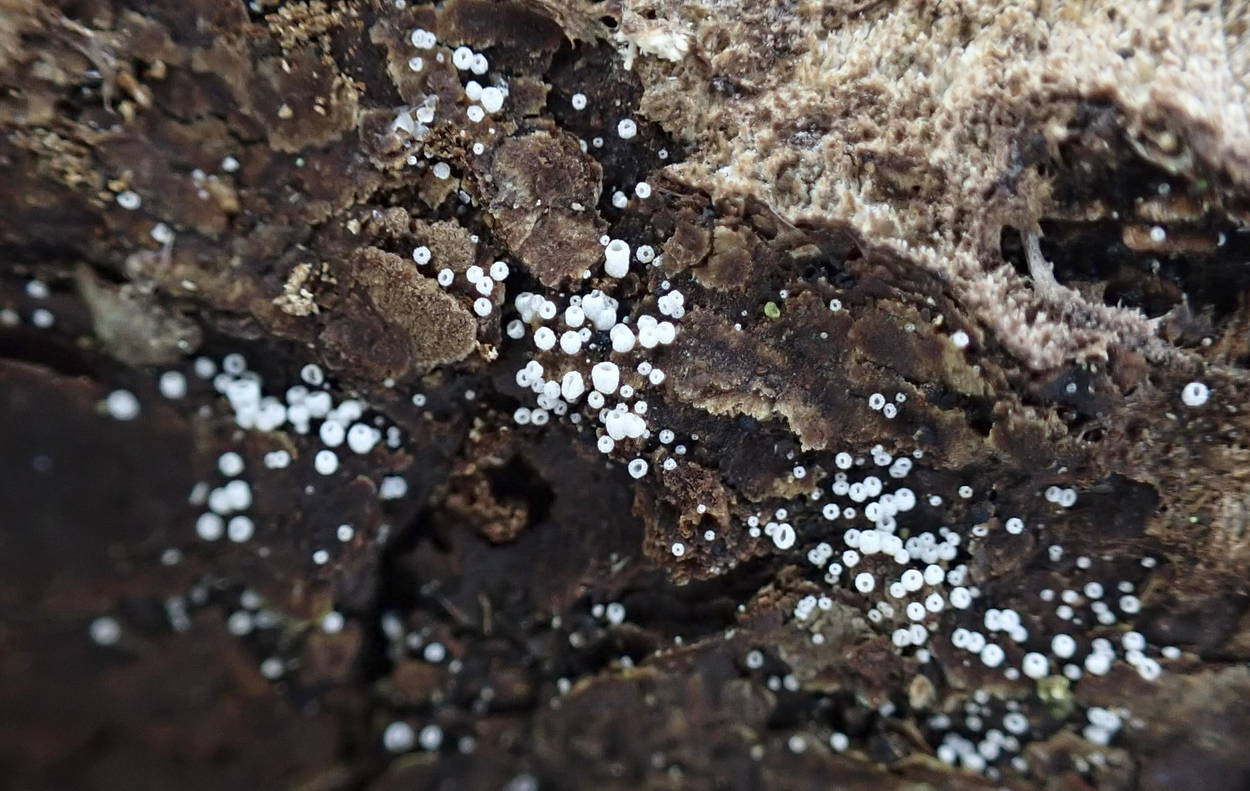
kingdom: Fungi
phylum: Basidiomycota
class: Agaricomycetes
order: Agaricales
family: Marasmiaceae
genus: Henningsomyces
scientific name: Henningsomyces candidus
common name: glat hængerør
